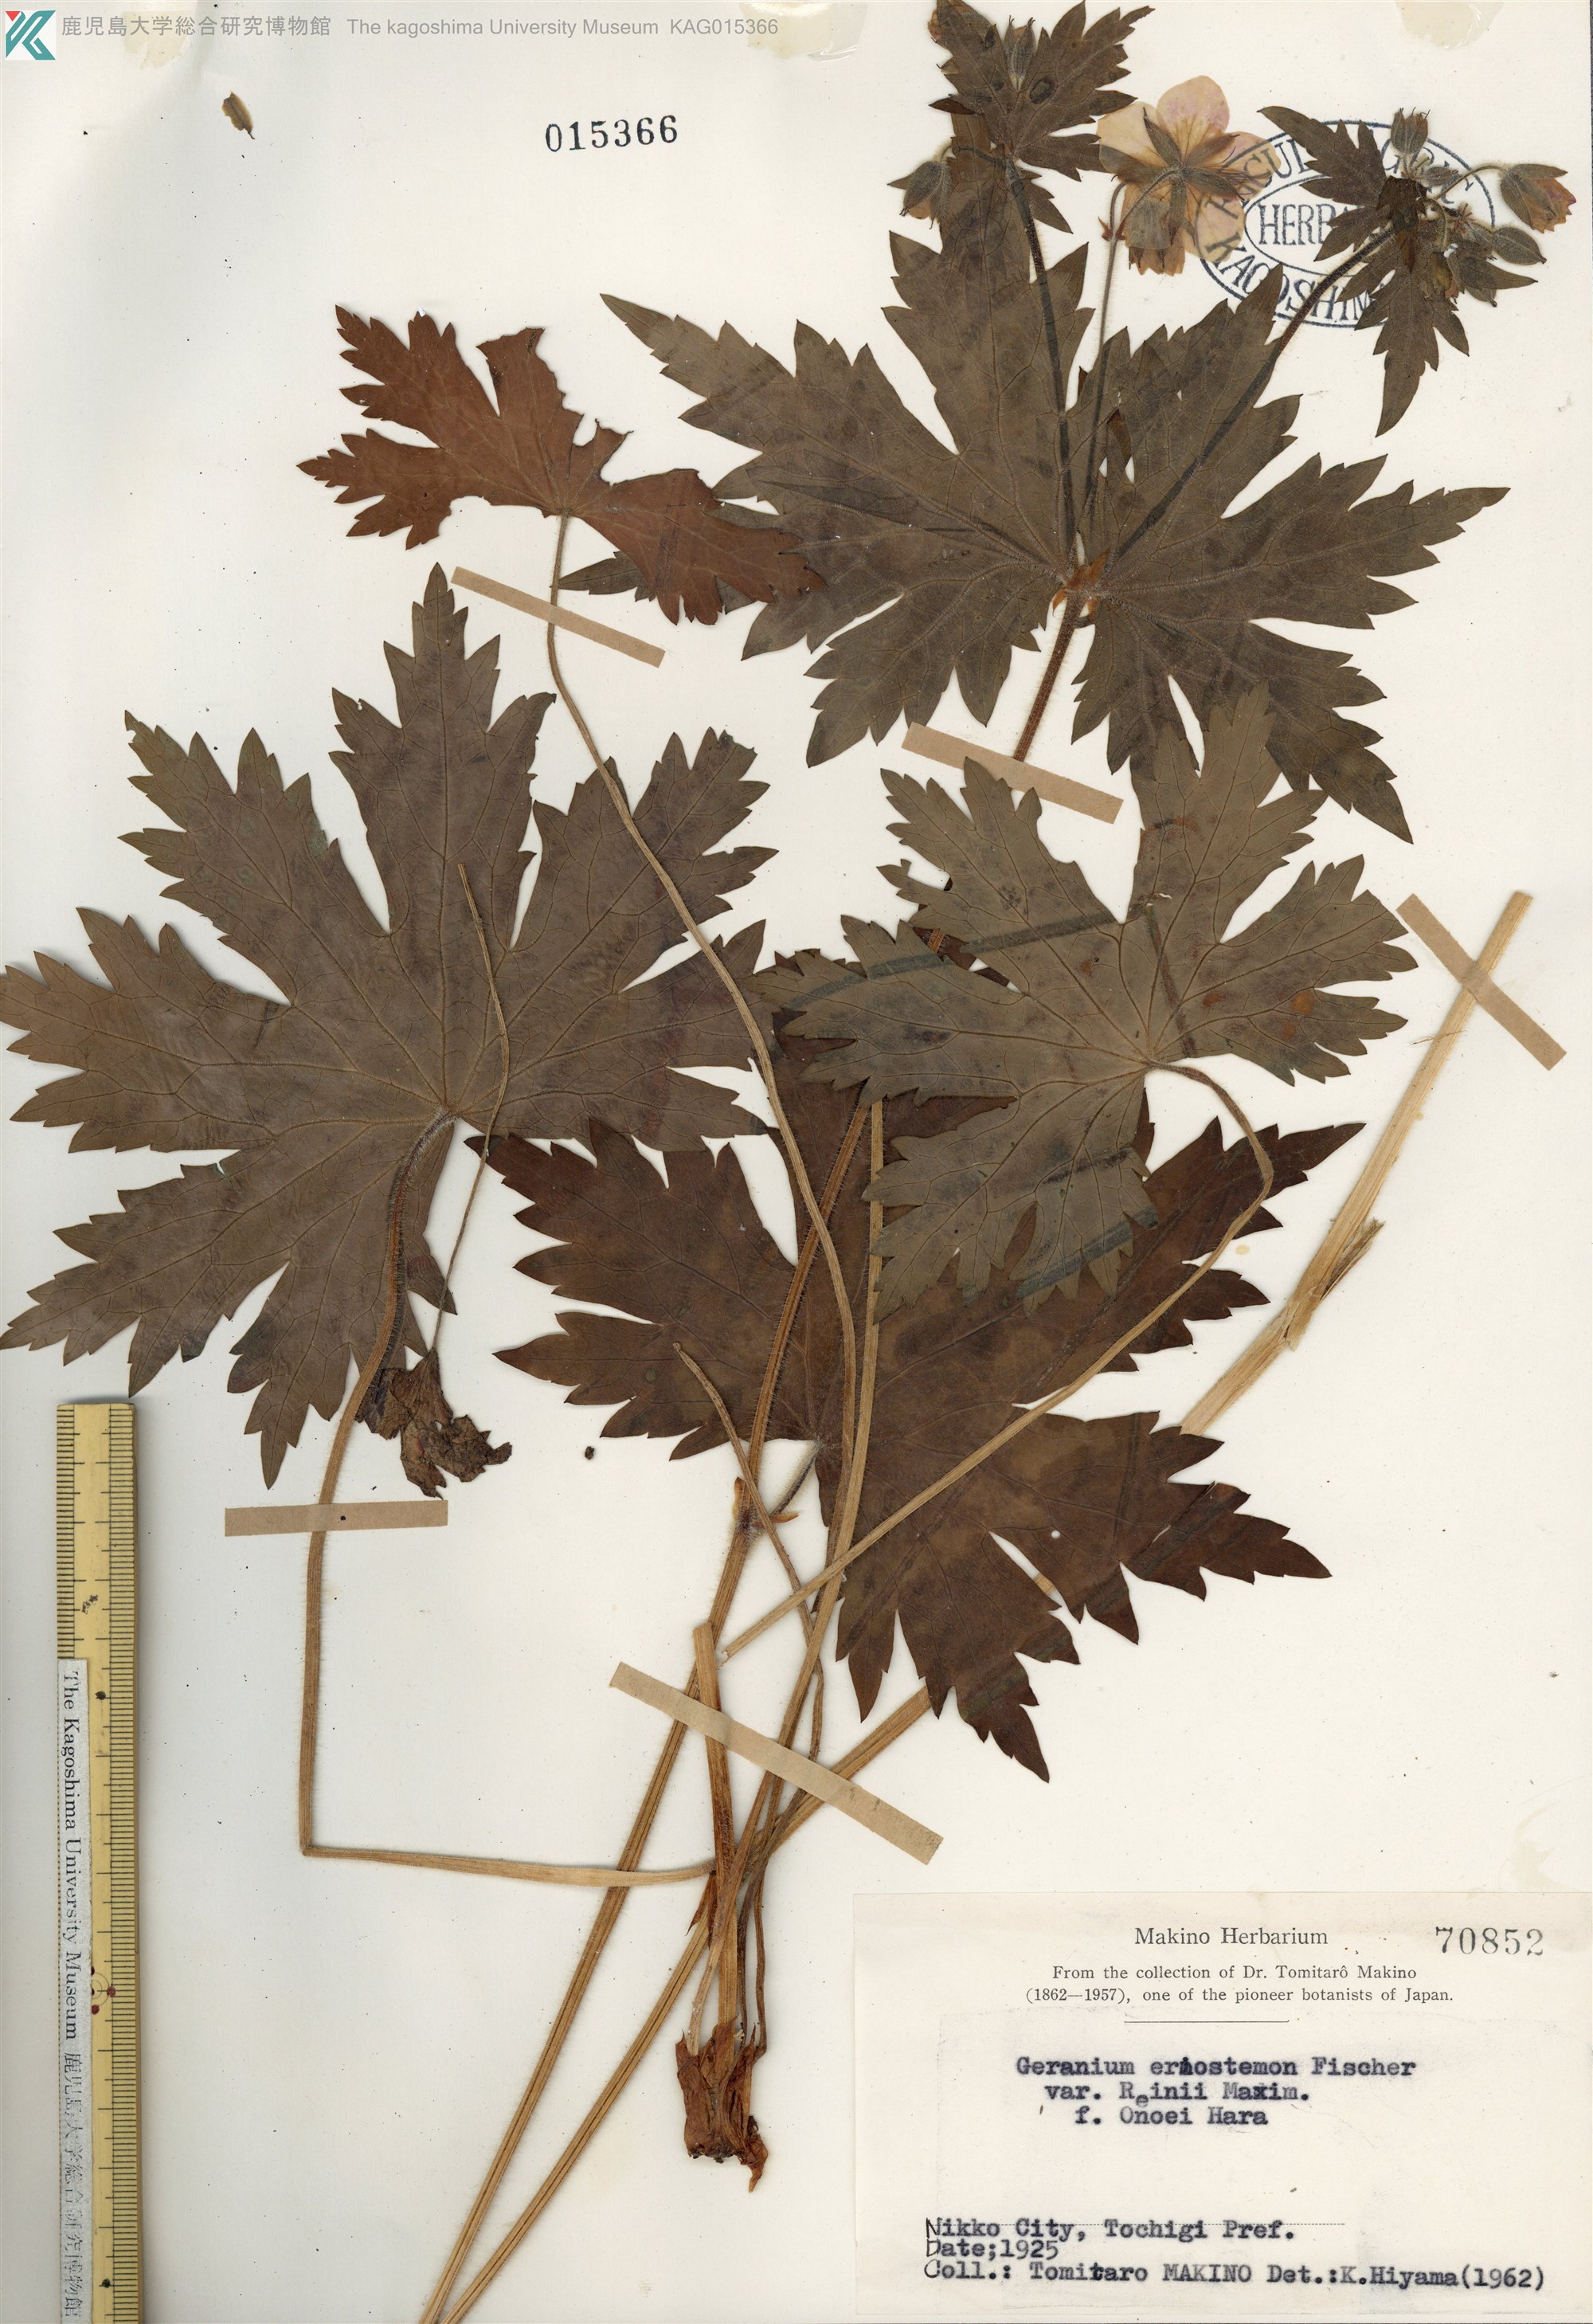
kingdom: Plantae
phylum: Tracheophyta
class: Magnoliopsida
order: Geraniales
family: Geraniaceae
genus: Geranium
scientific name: Geranium reinii
